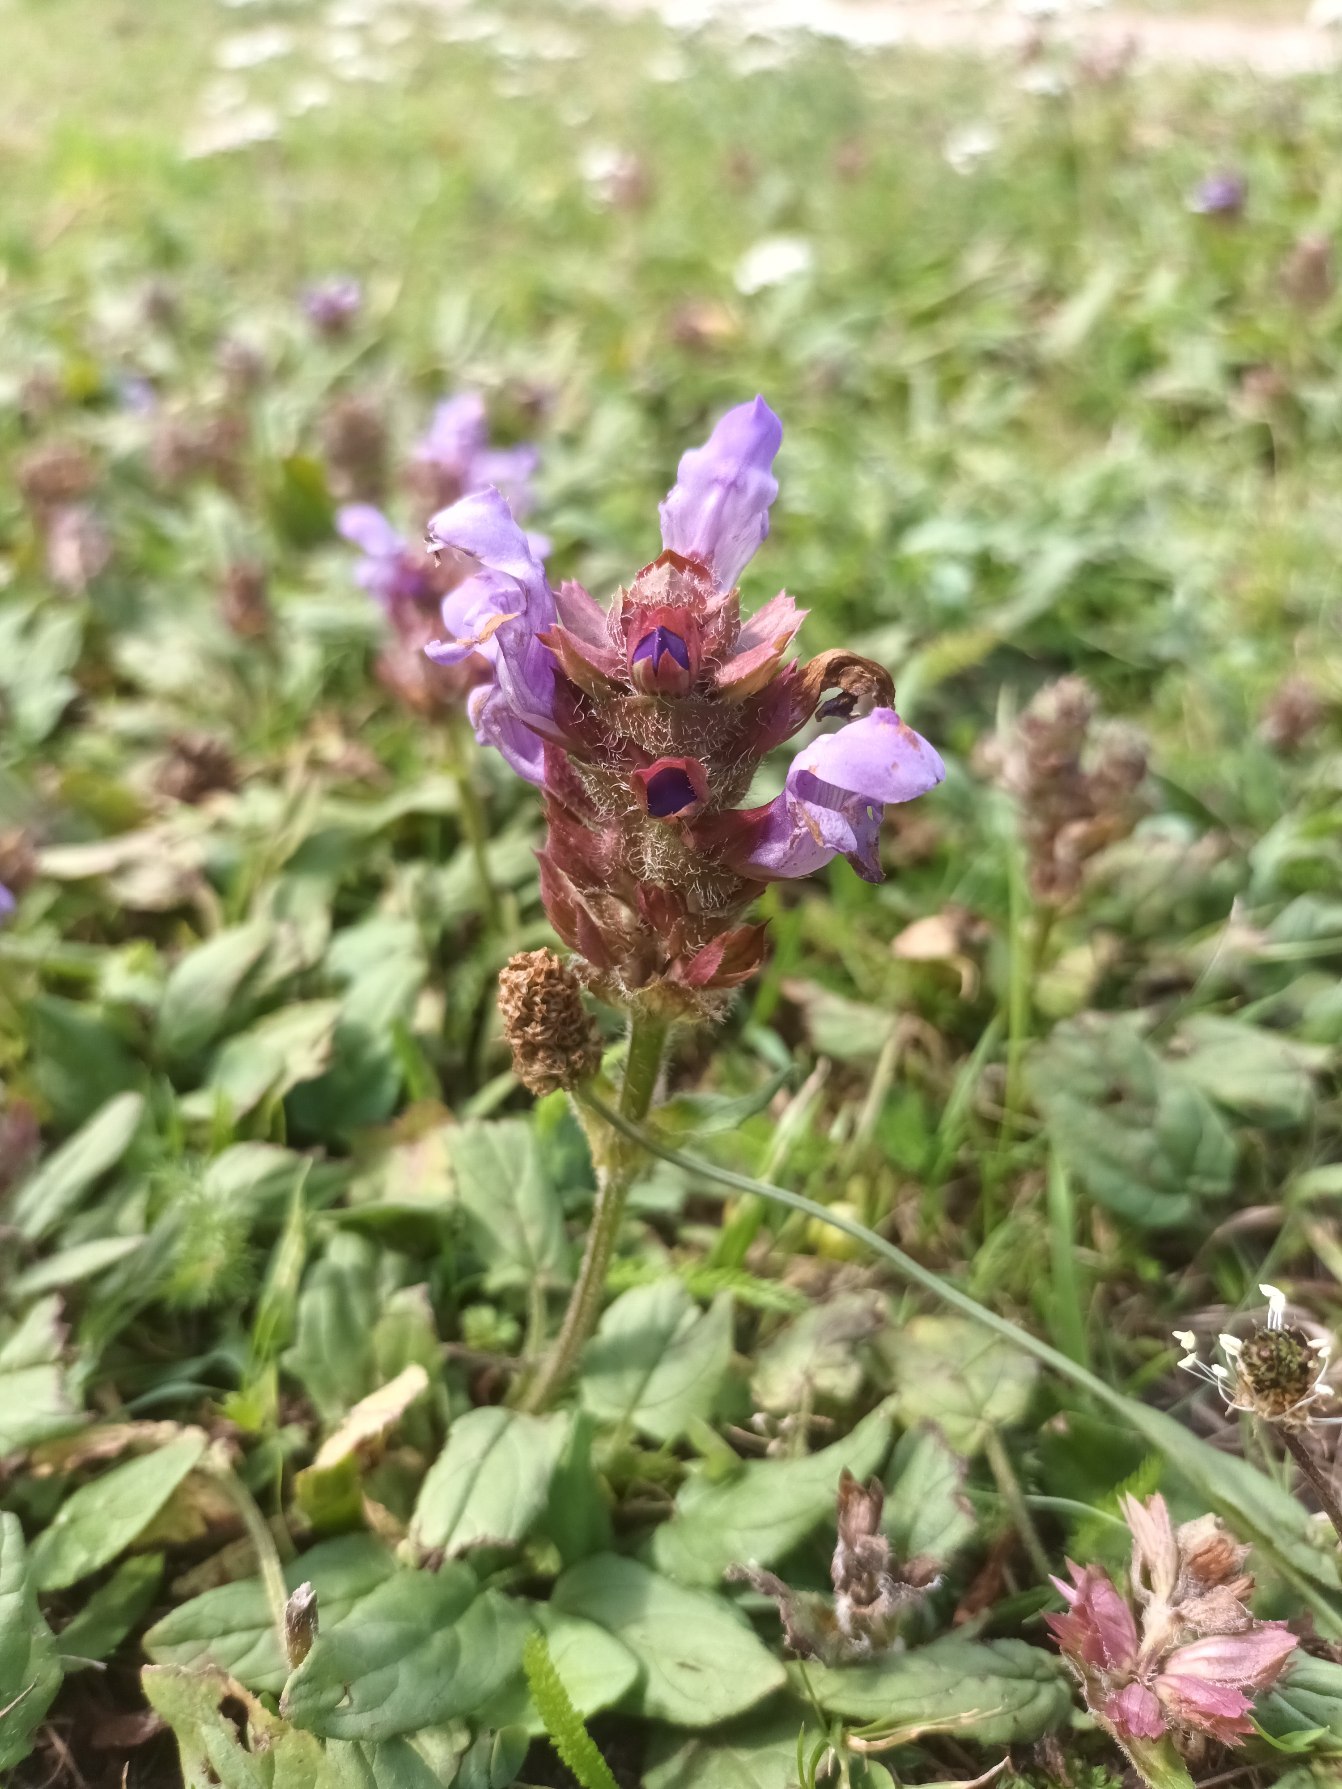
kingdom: Plantae
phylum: Tracheophyta
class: Magnoliopsida
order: Lamiales
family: Lamiaceae
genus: Prunella
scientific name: Prunella grandiflora
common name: Storblomstret brunelle
